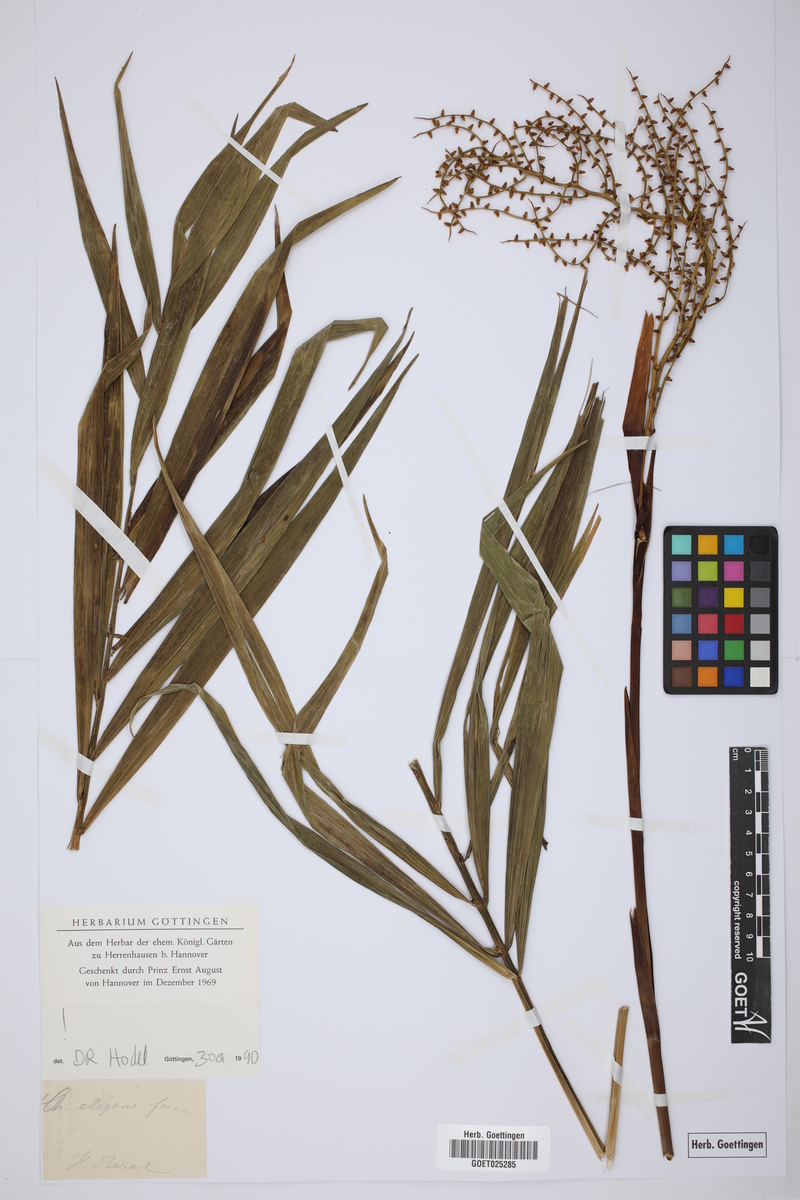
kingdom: Plantae
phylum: Tracheophyta
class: Liliopsida
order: Arecales
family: Arecaceae
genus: Chamaedorea
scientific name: Chamaedorea elegans
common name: Good-luck palm
